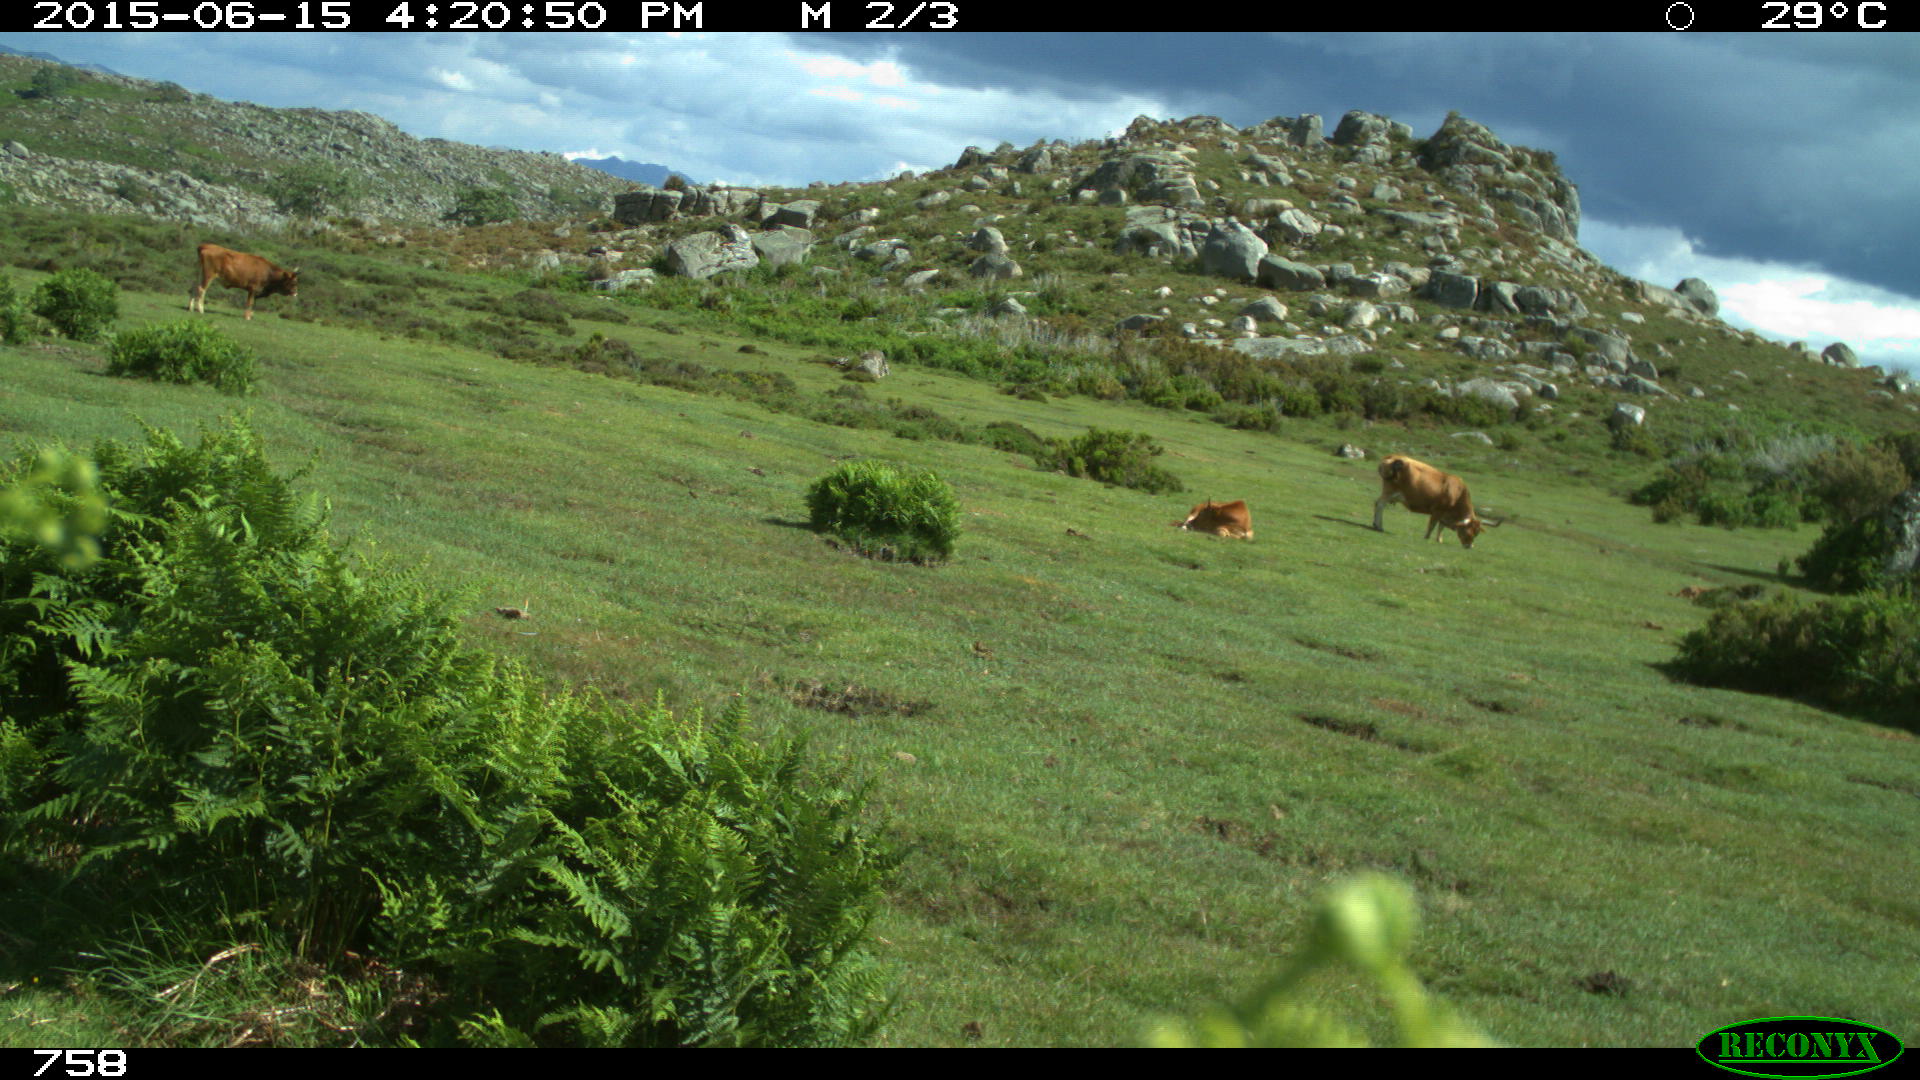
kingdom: Animalia
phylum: Chordata
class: Mammalia
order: Artiodactyla
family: Bovidae
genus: Bos
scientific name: Bos taurus
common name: Domesticated cattle
